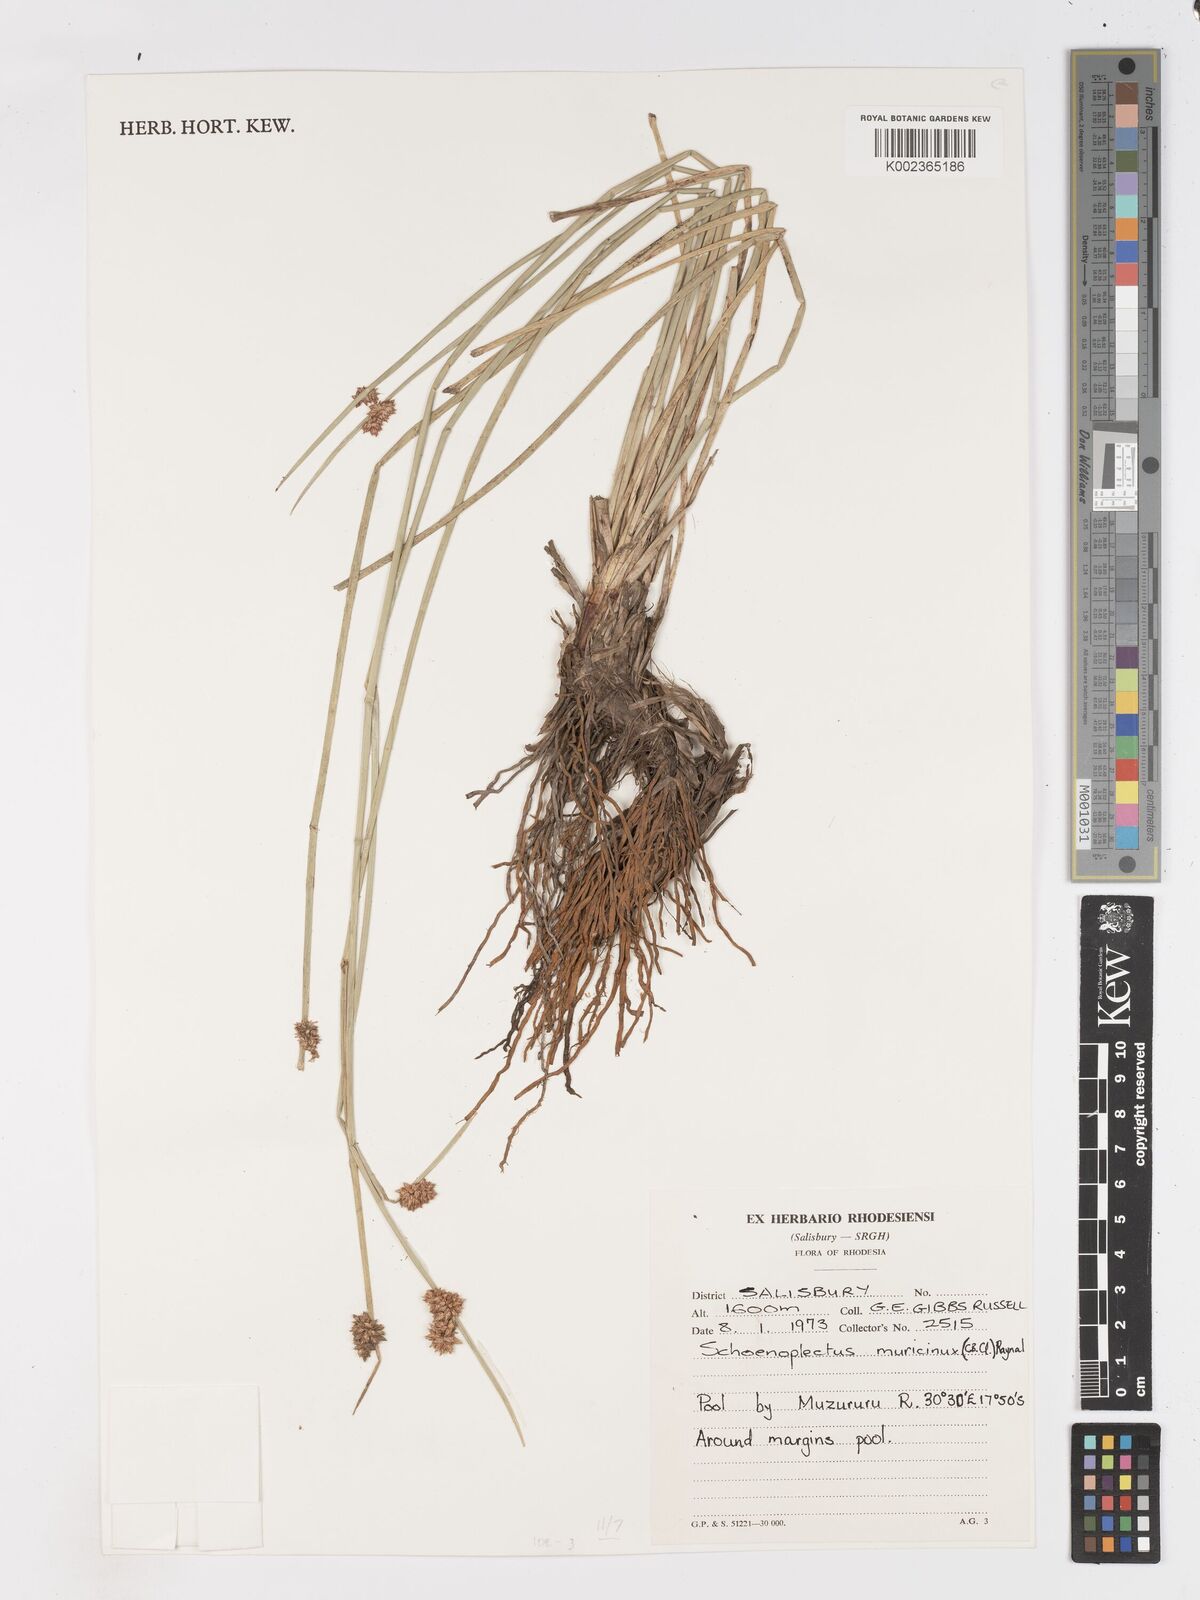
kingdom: Plantae
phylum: Tracheophyta
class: Liliopsida
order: Poales
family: Cyperaceae
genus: Schoenoplectiella
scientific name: Schoenoplectiella muricinux
